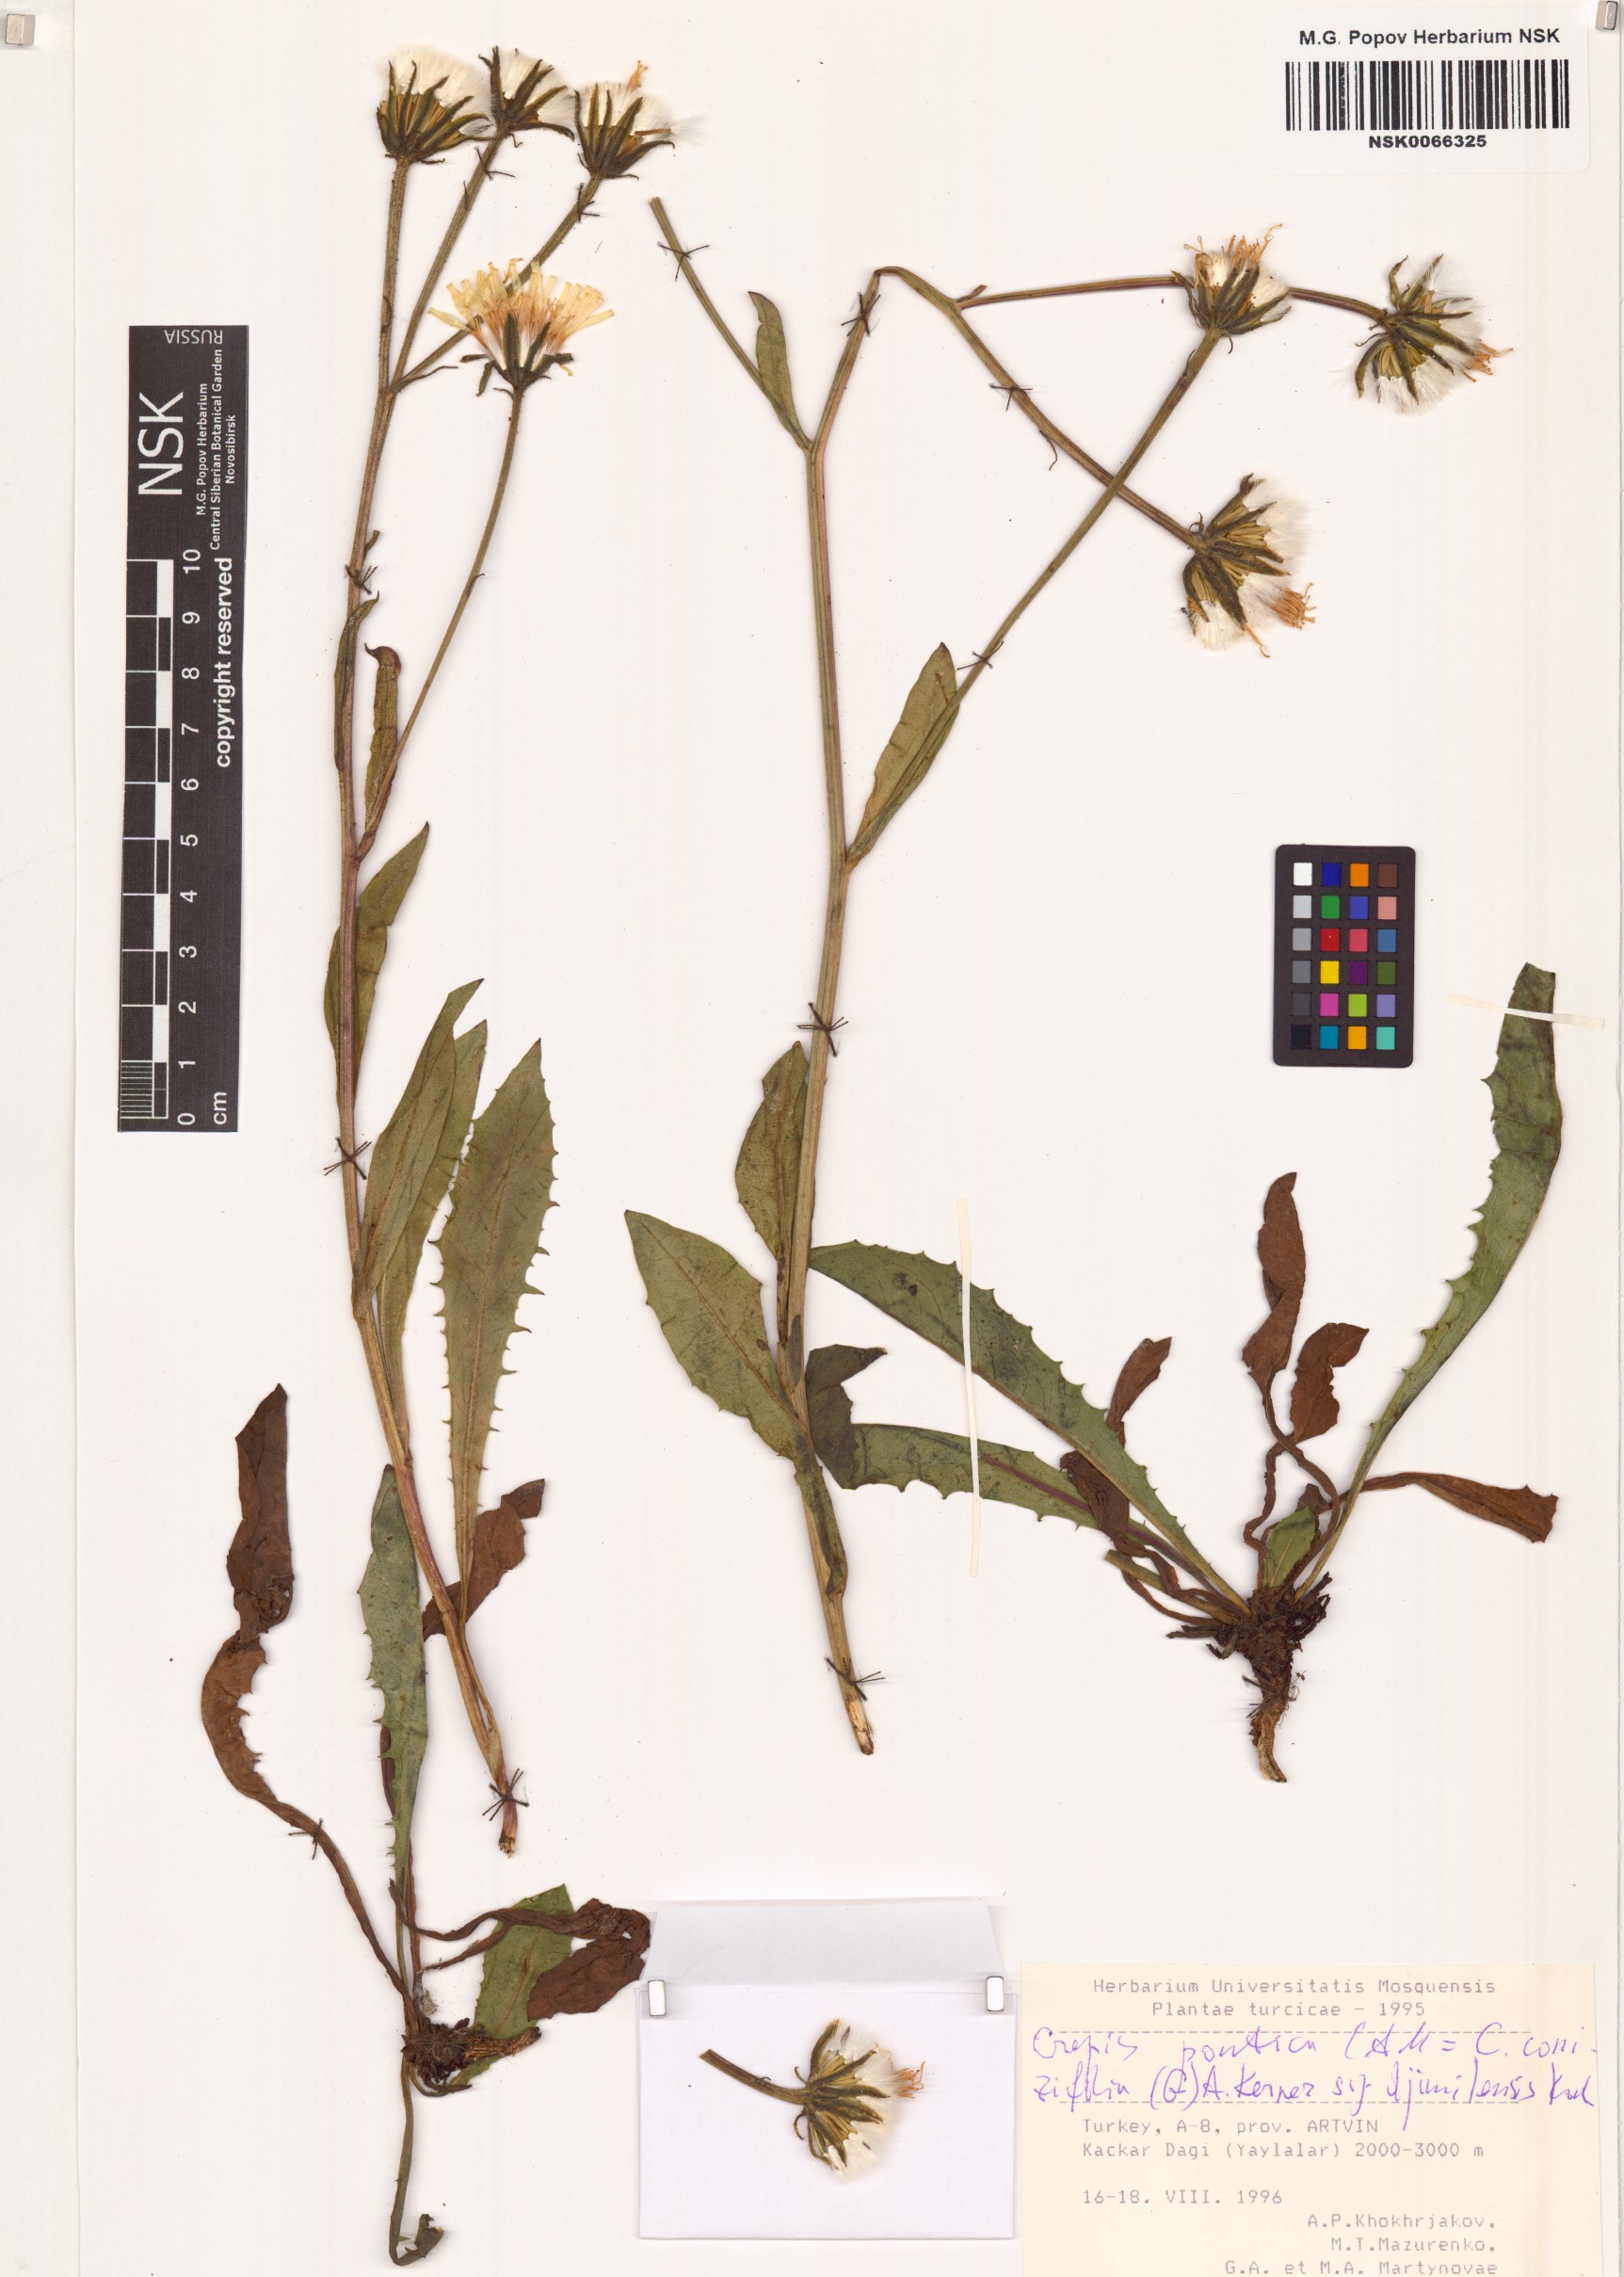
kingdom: Plantae
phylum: Tracheophyta
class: Magnoliopsida
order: Asterales
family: Asteraceae
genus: Crepis
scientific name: Crepis pyrenaica
